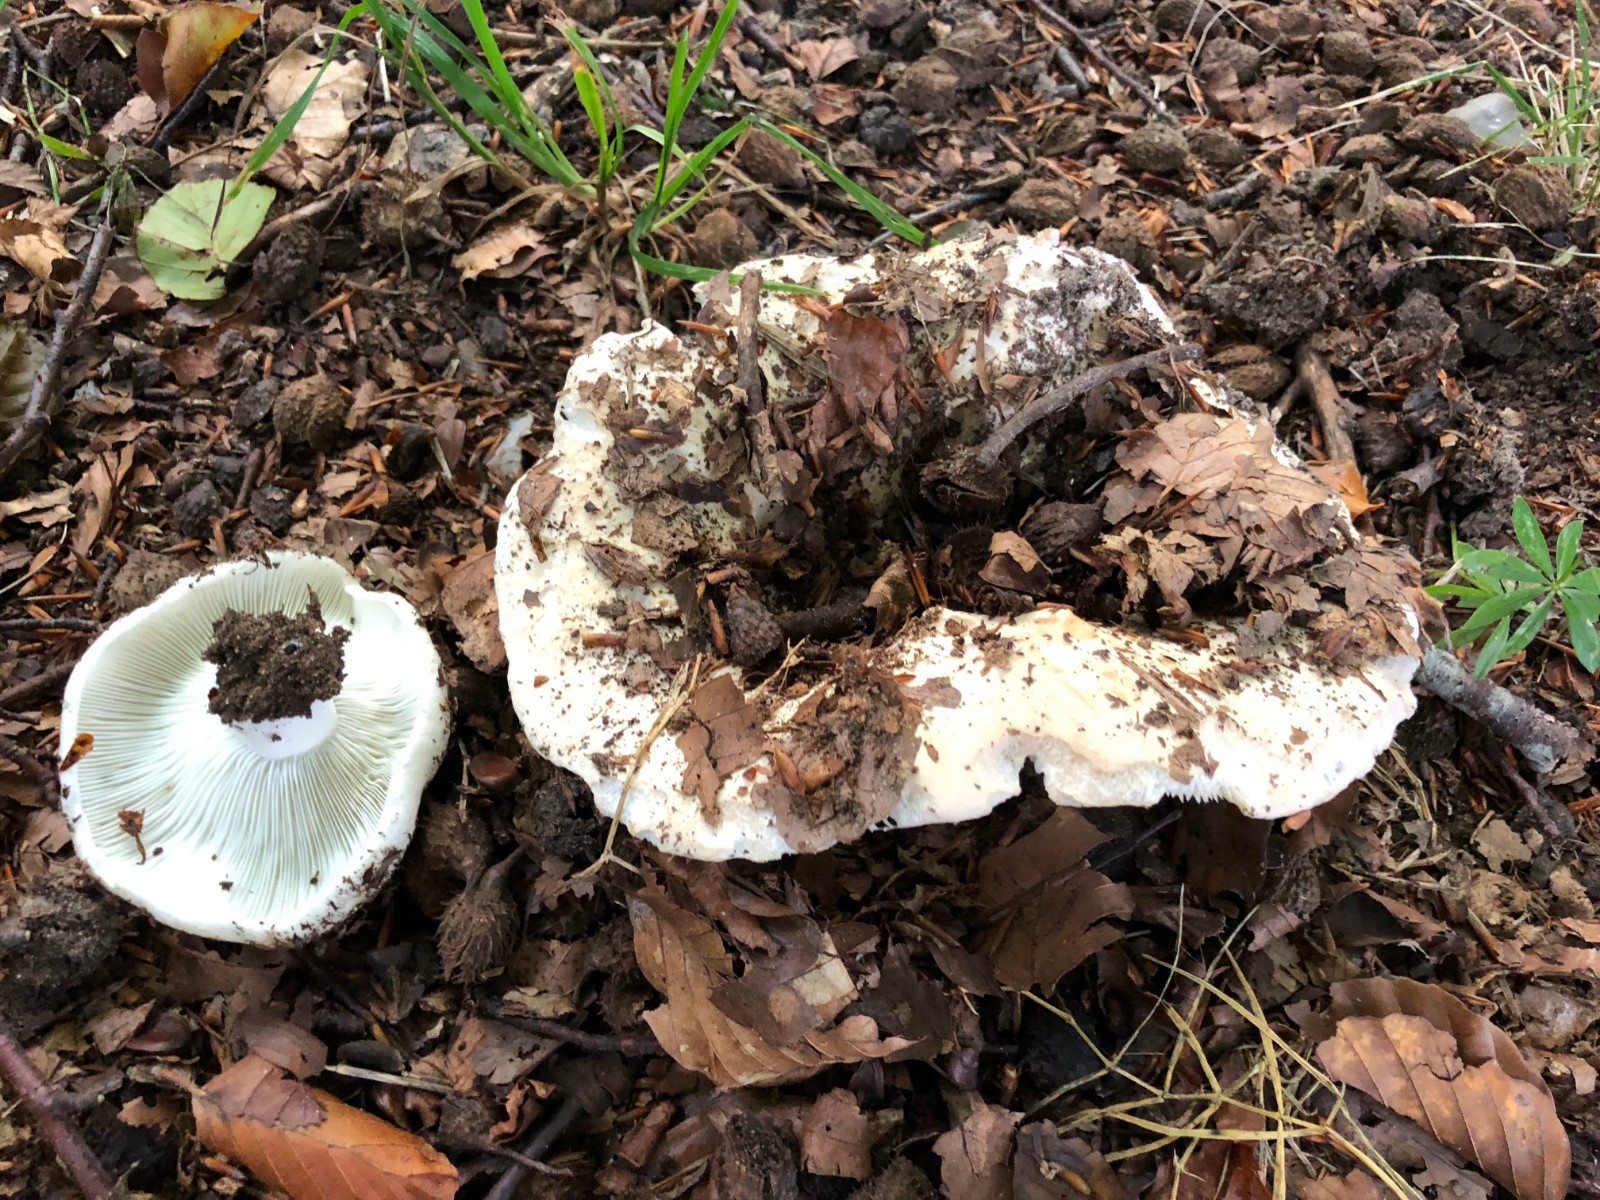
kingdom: Fungi
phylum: Basidiomycota
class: Agaricomycetes
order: Russulales
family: Russulaceae
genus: Russula
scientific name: Russula chloroides
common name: grønhalset tragt-skørhat
